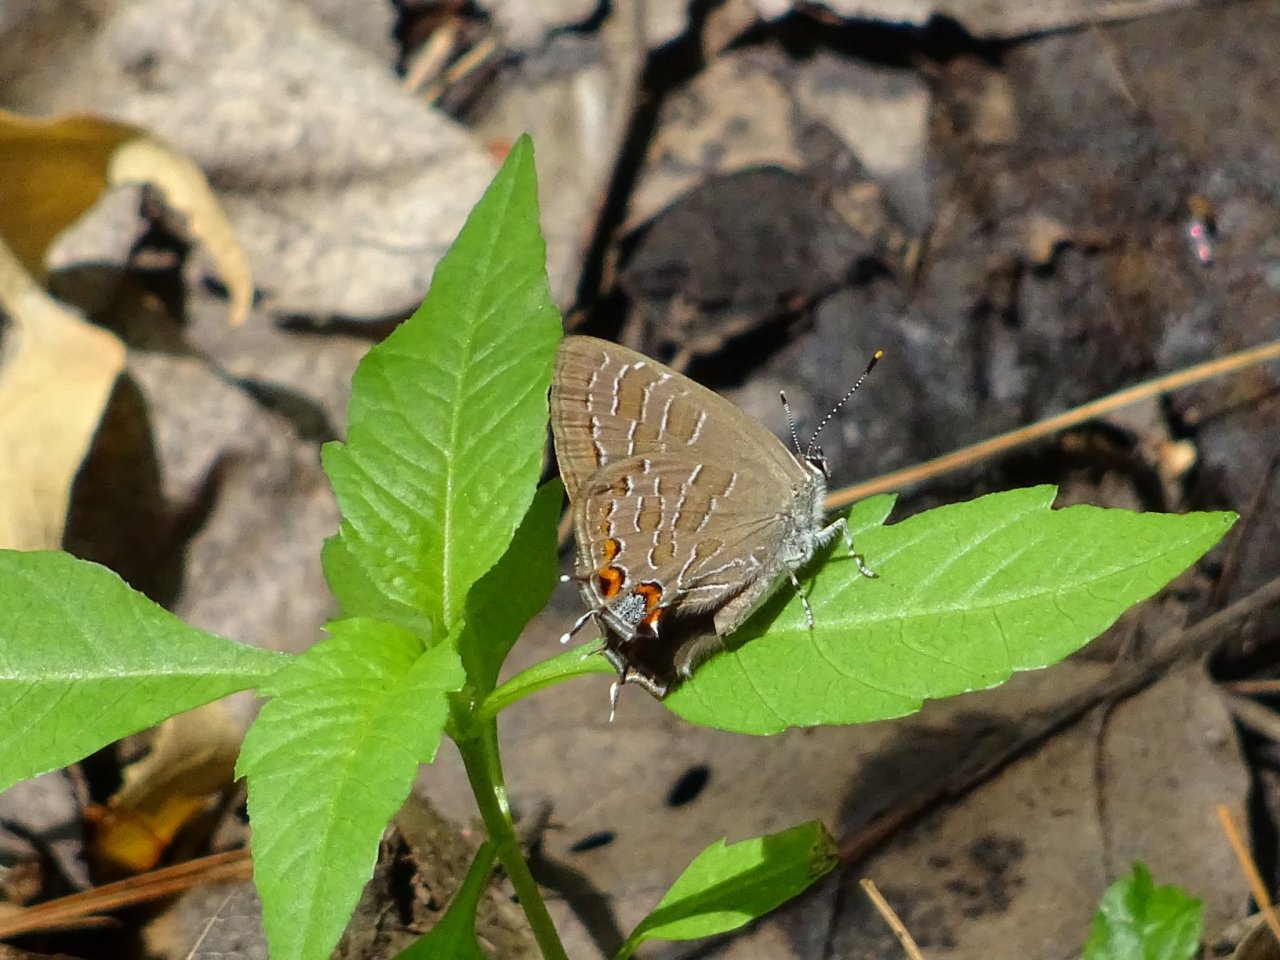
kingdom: Animalia
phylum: Arthropoda
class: Insecta
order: Lepidoptera
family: Lycaenidae
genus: Satyrium
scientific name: Satyrium liparops
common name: Striped Hairstreak
